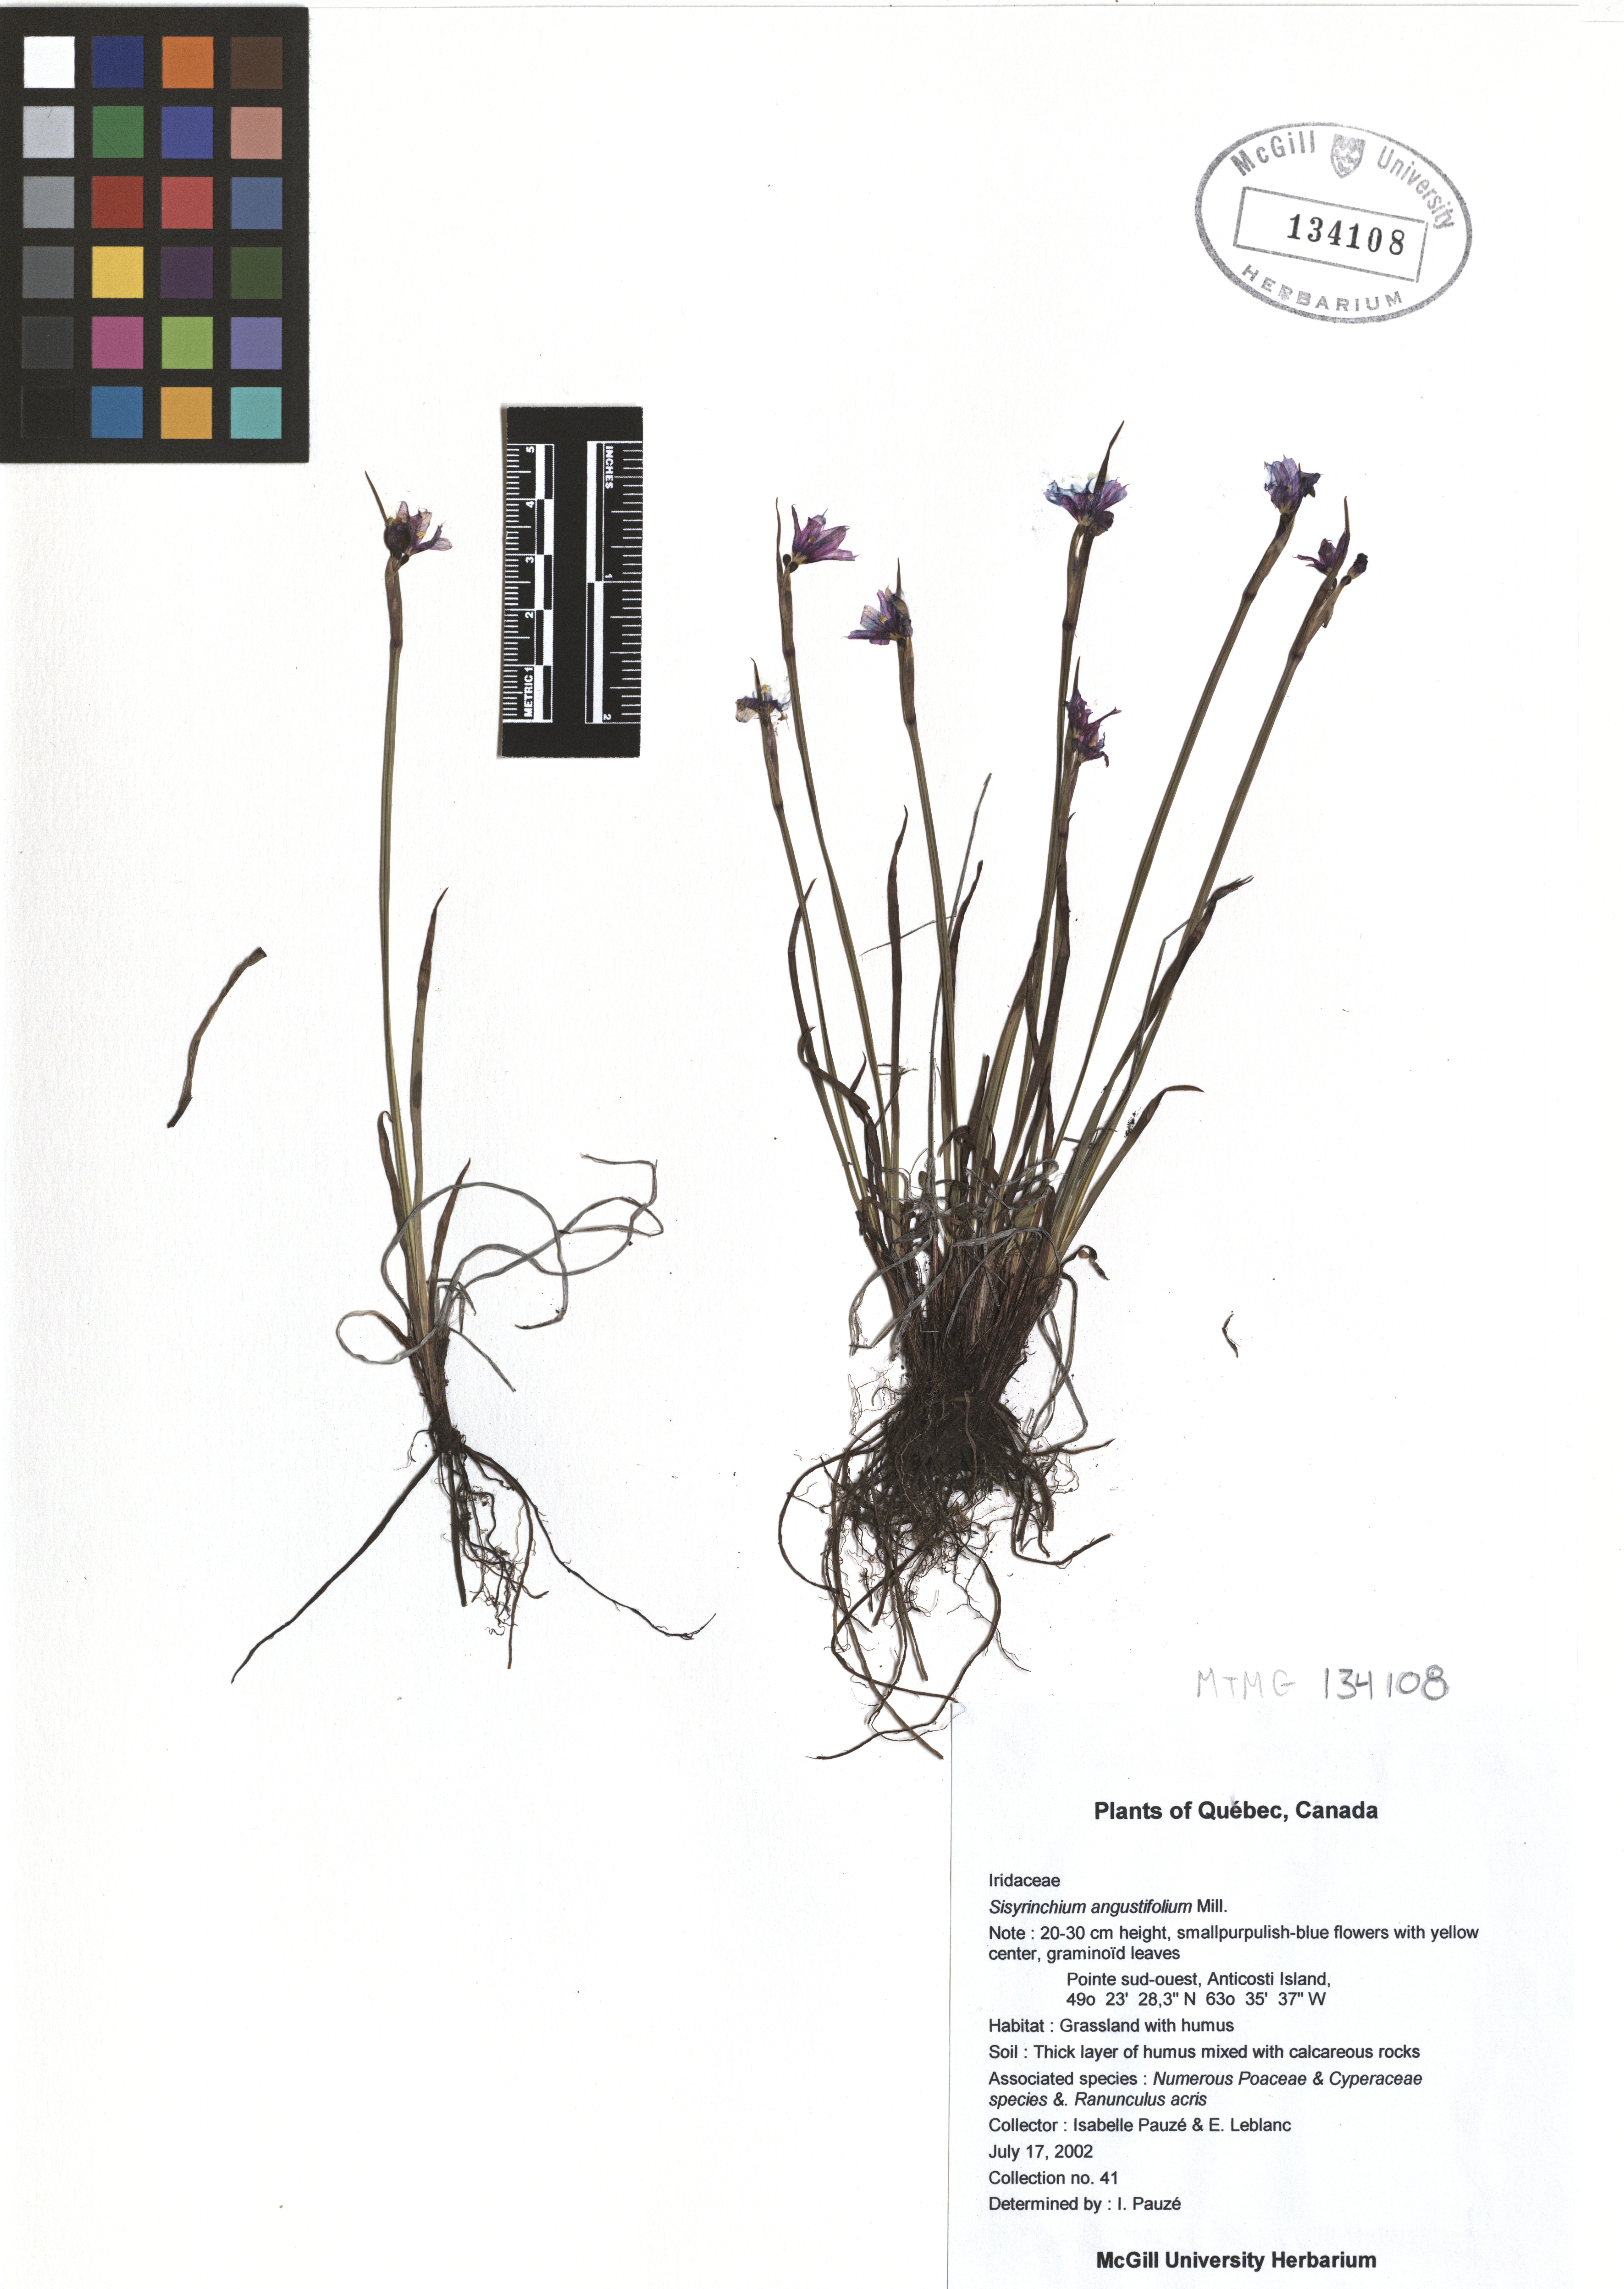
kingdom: Plantae
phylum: Tracheophyta
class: Liliopsida
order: Asparagales
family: Iridaceae
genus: Sisyrinchium
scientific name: Sisyrinchium angustifolium
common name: Narrow-leaf blue-eyed-grass
